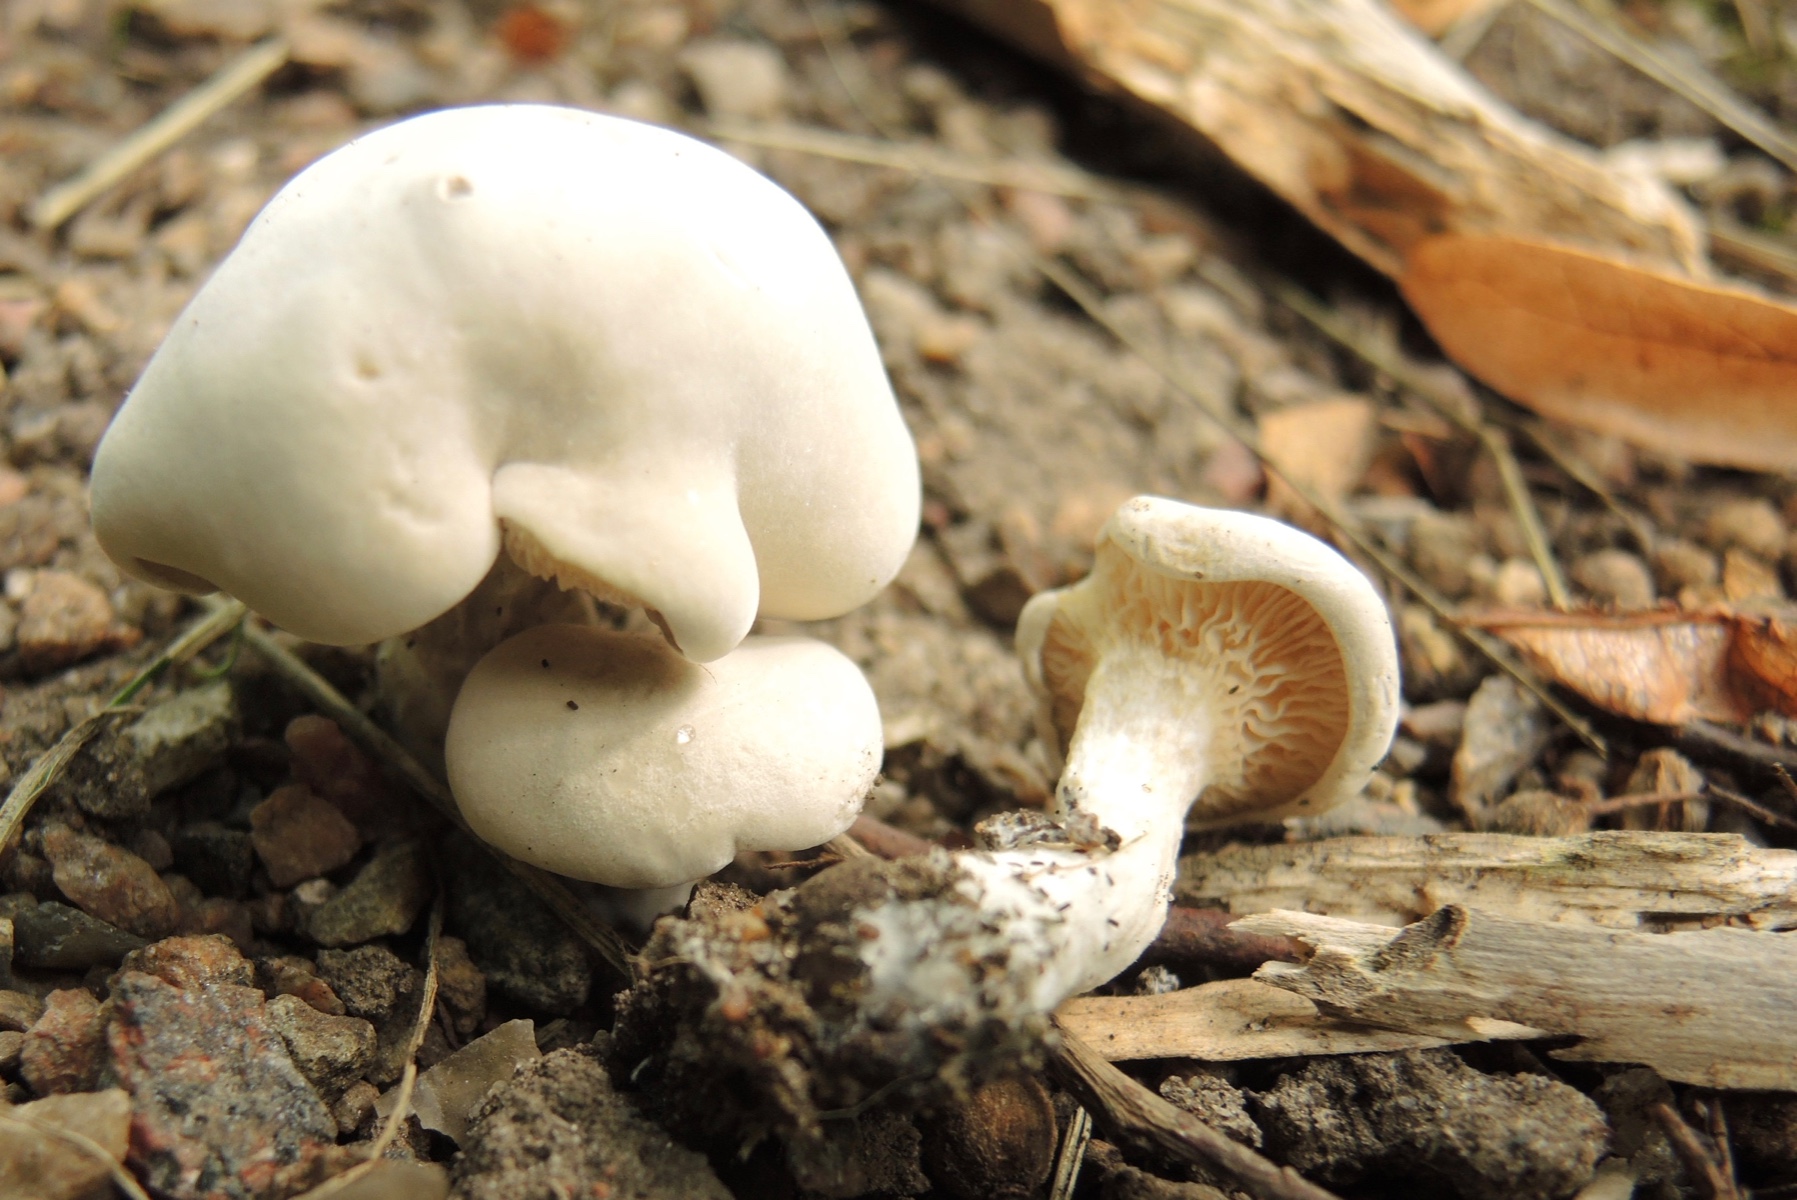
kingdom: Fungi
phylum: Basidiomycota
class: Agaricomycetes
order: Agaricales
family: Entolomataceae
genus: Clitopilus
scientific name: Clitopilus prunulus
